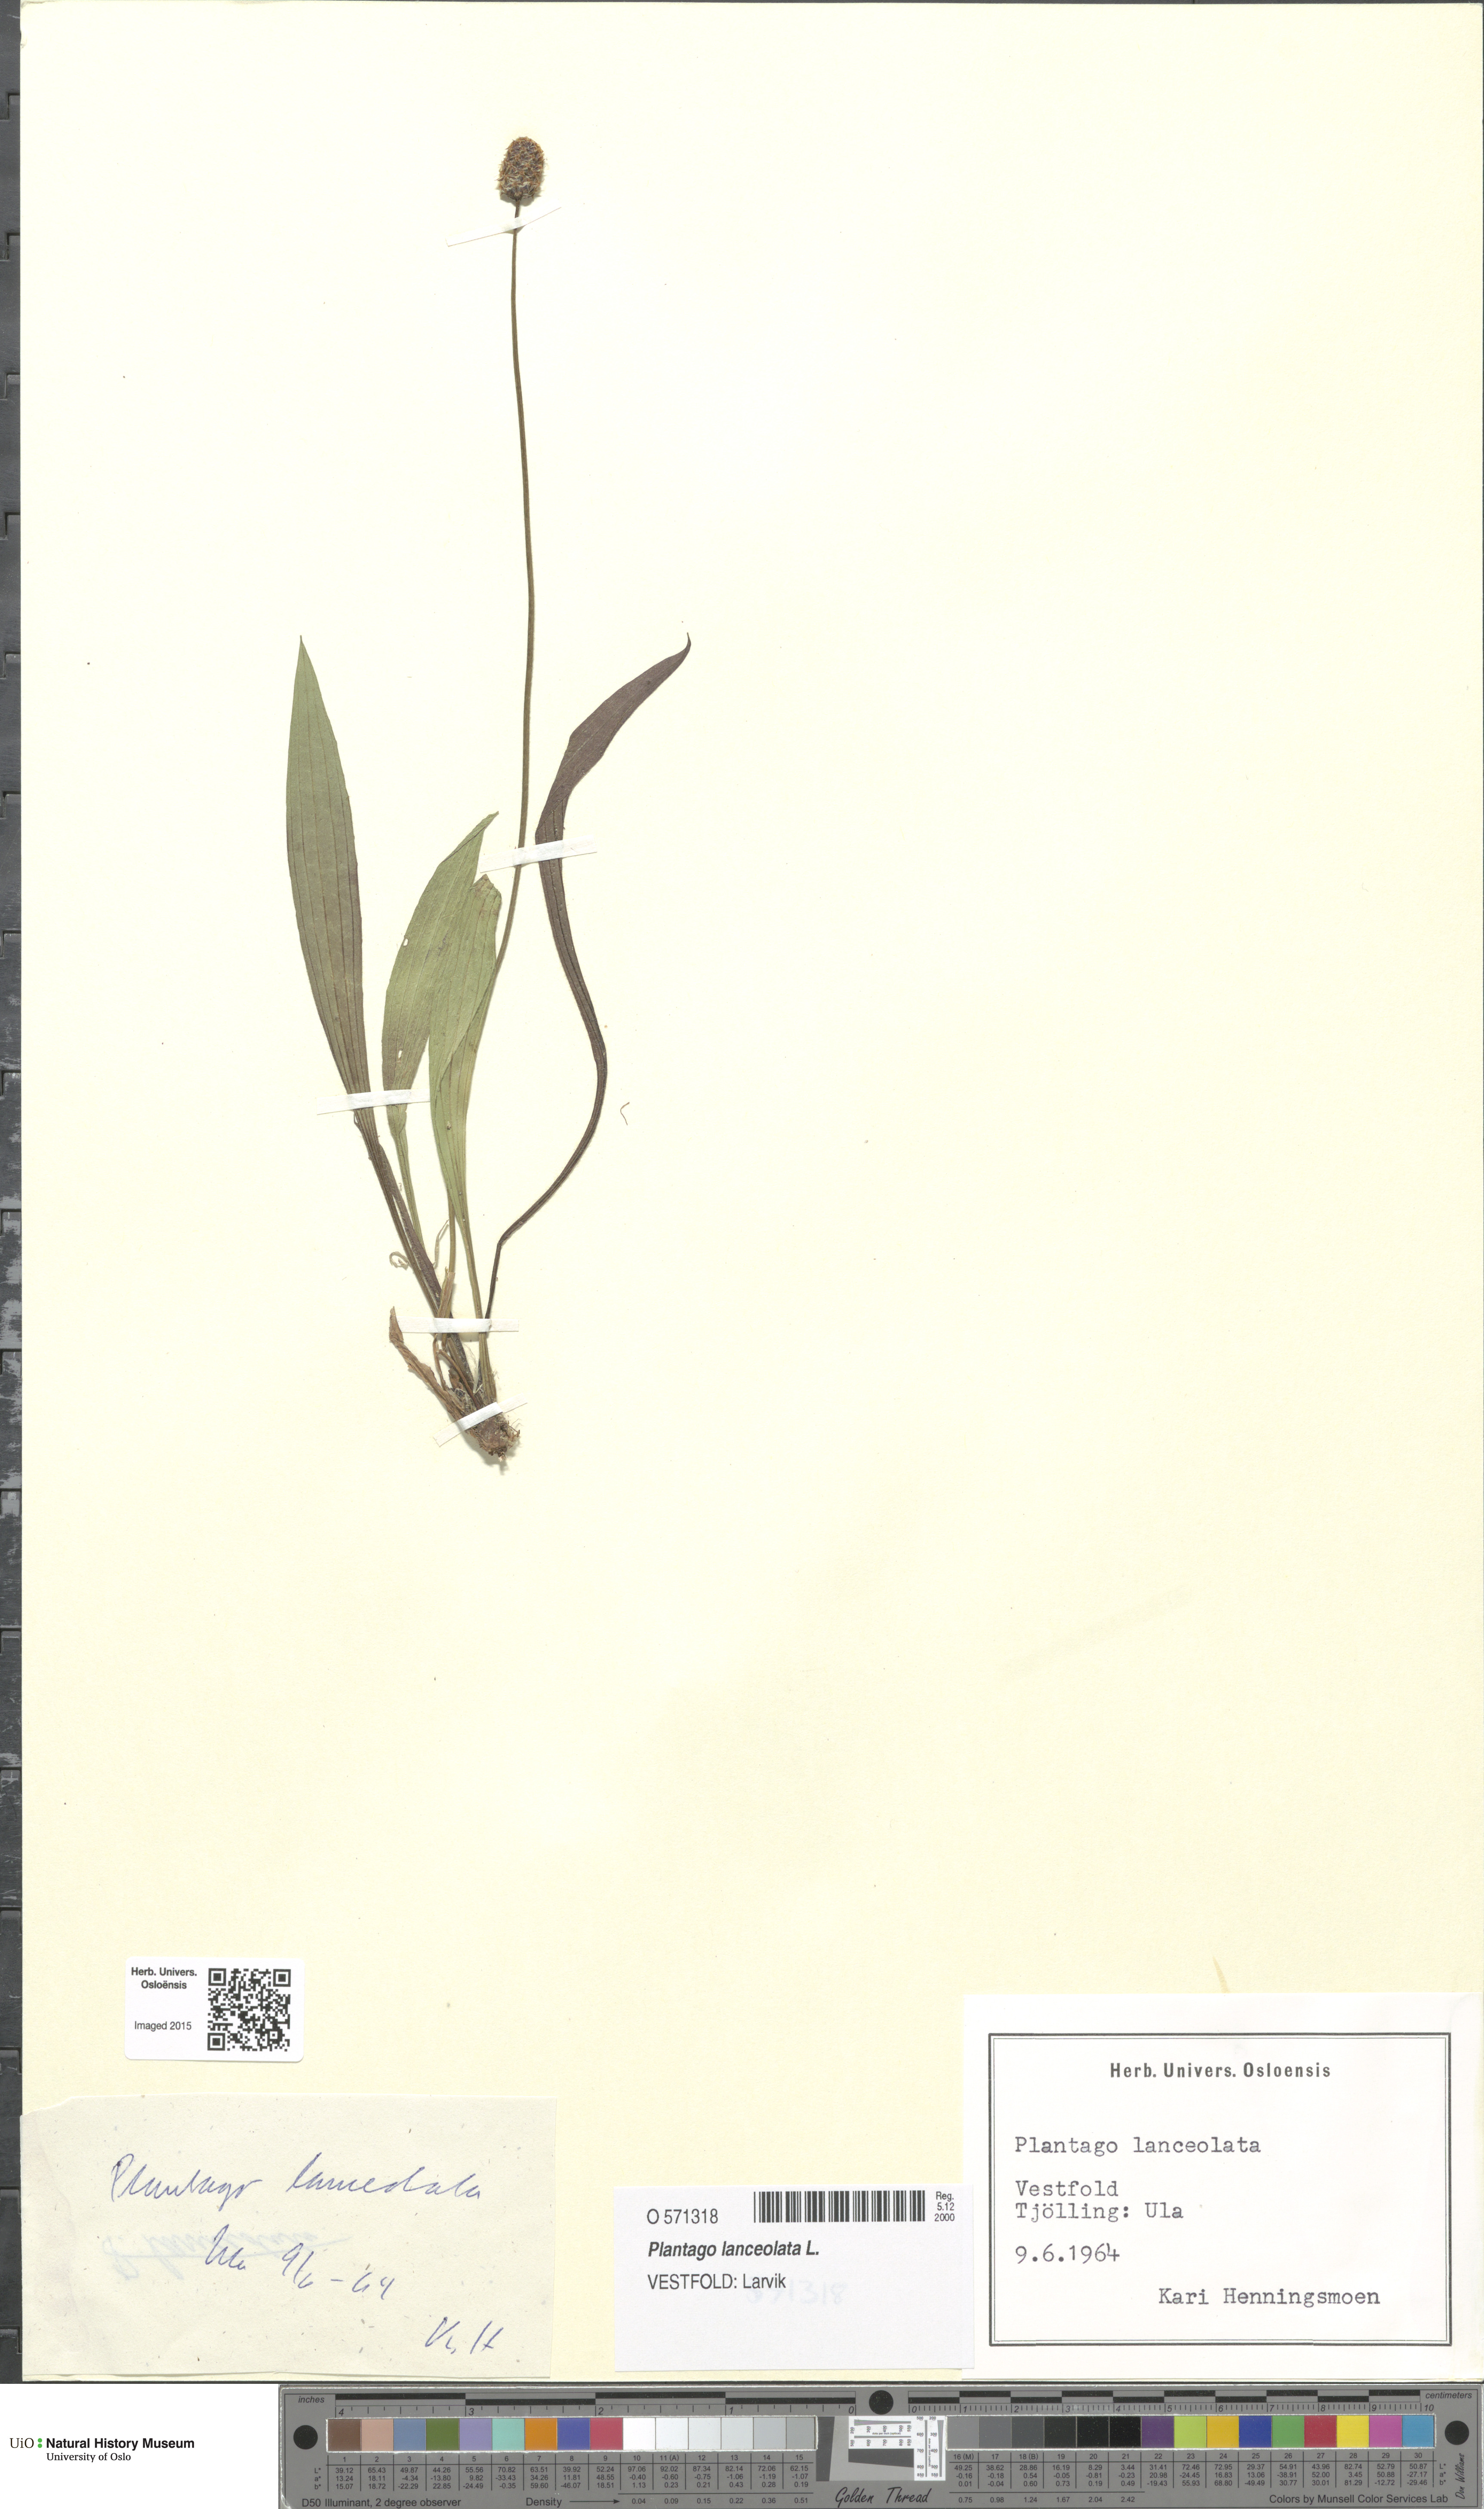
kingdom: Plantae
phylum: Tracheophyta
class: Magnoliopsida
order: Lamiales
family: Plantaginaceae
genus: Plantago
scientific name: Plantago lanceolata
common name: Ribwort plantain
